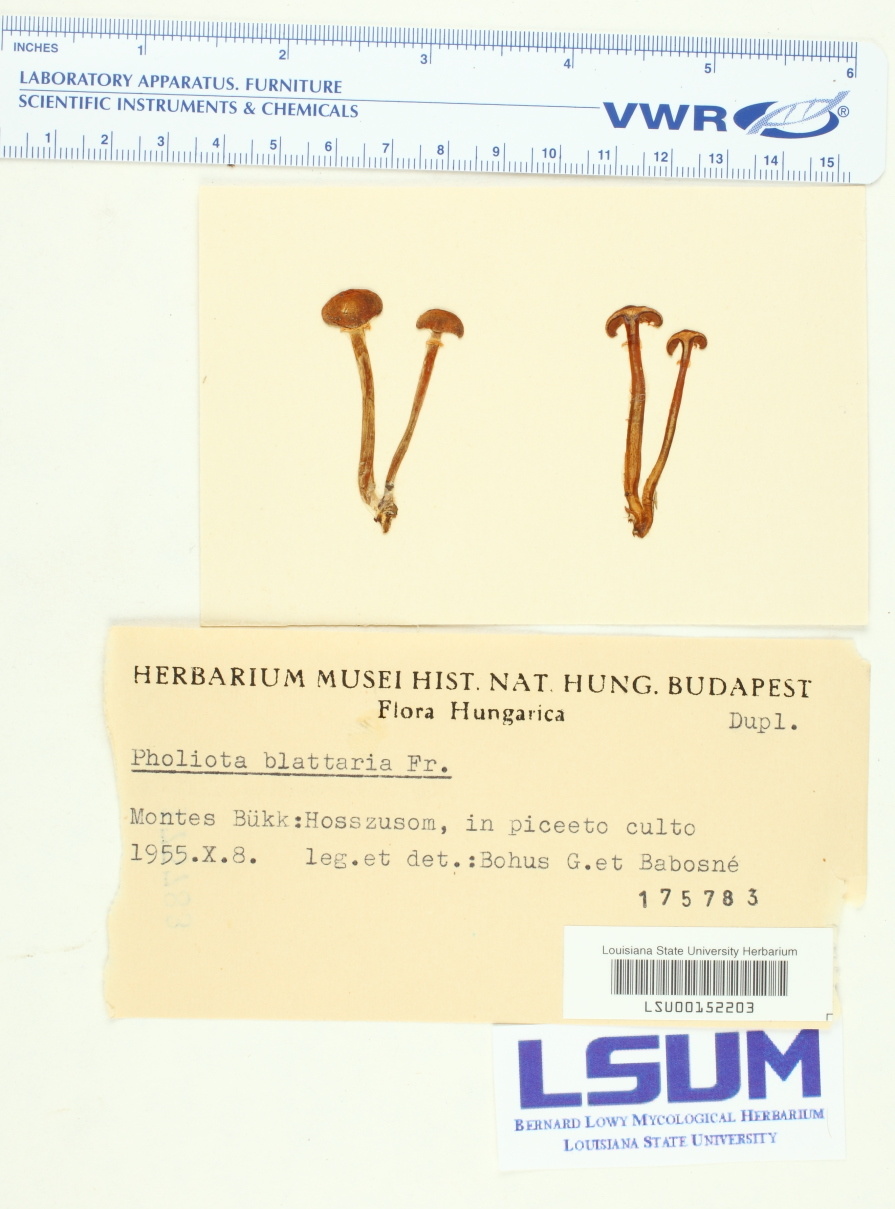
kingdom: Fungi
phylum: Basidiomycota
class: Agaricomycetes
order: Agaricales
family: Bolbitiaceae
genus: Pholiotina
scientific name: Pholiotina blattaria
